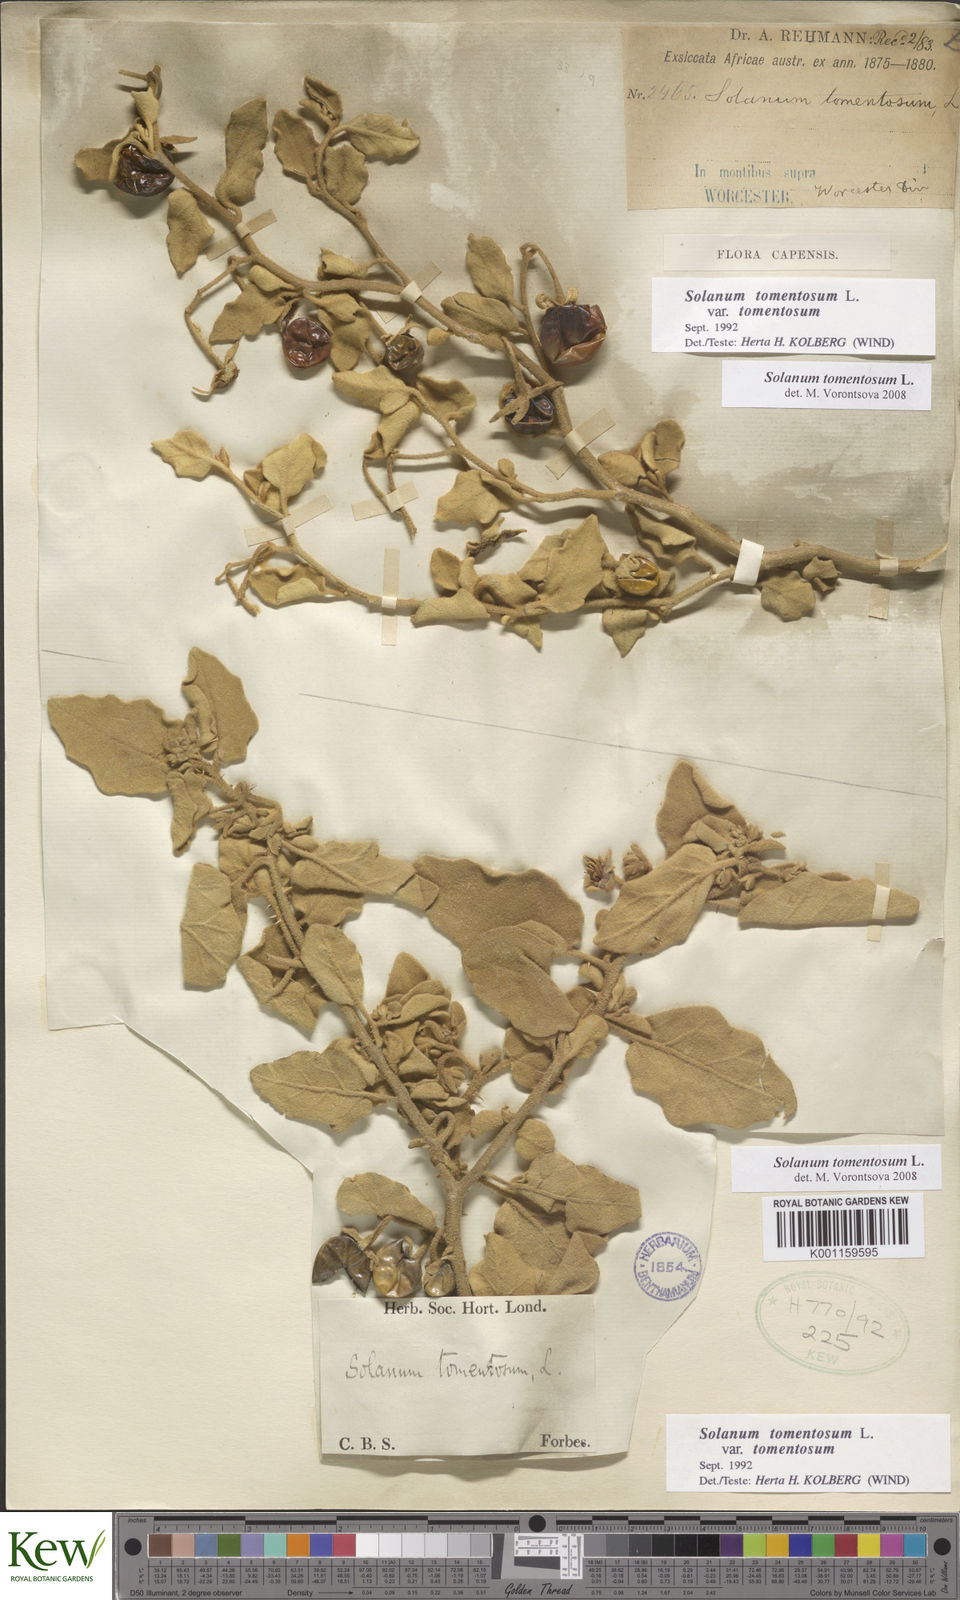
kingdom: Plantae
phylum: Tracheophyta
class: Magnoliopsida
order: Solanales
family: Solanaceae
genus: Solanum
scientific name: Solanum tomentosum
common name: Wild aubergine
